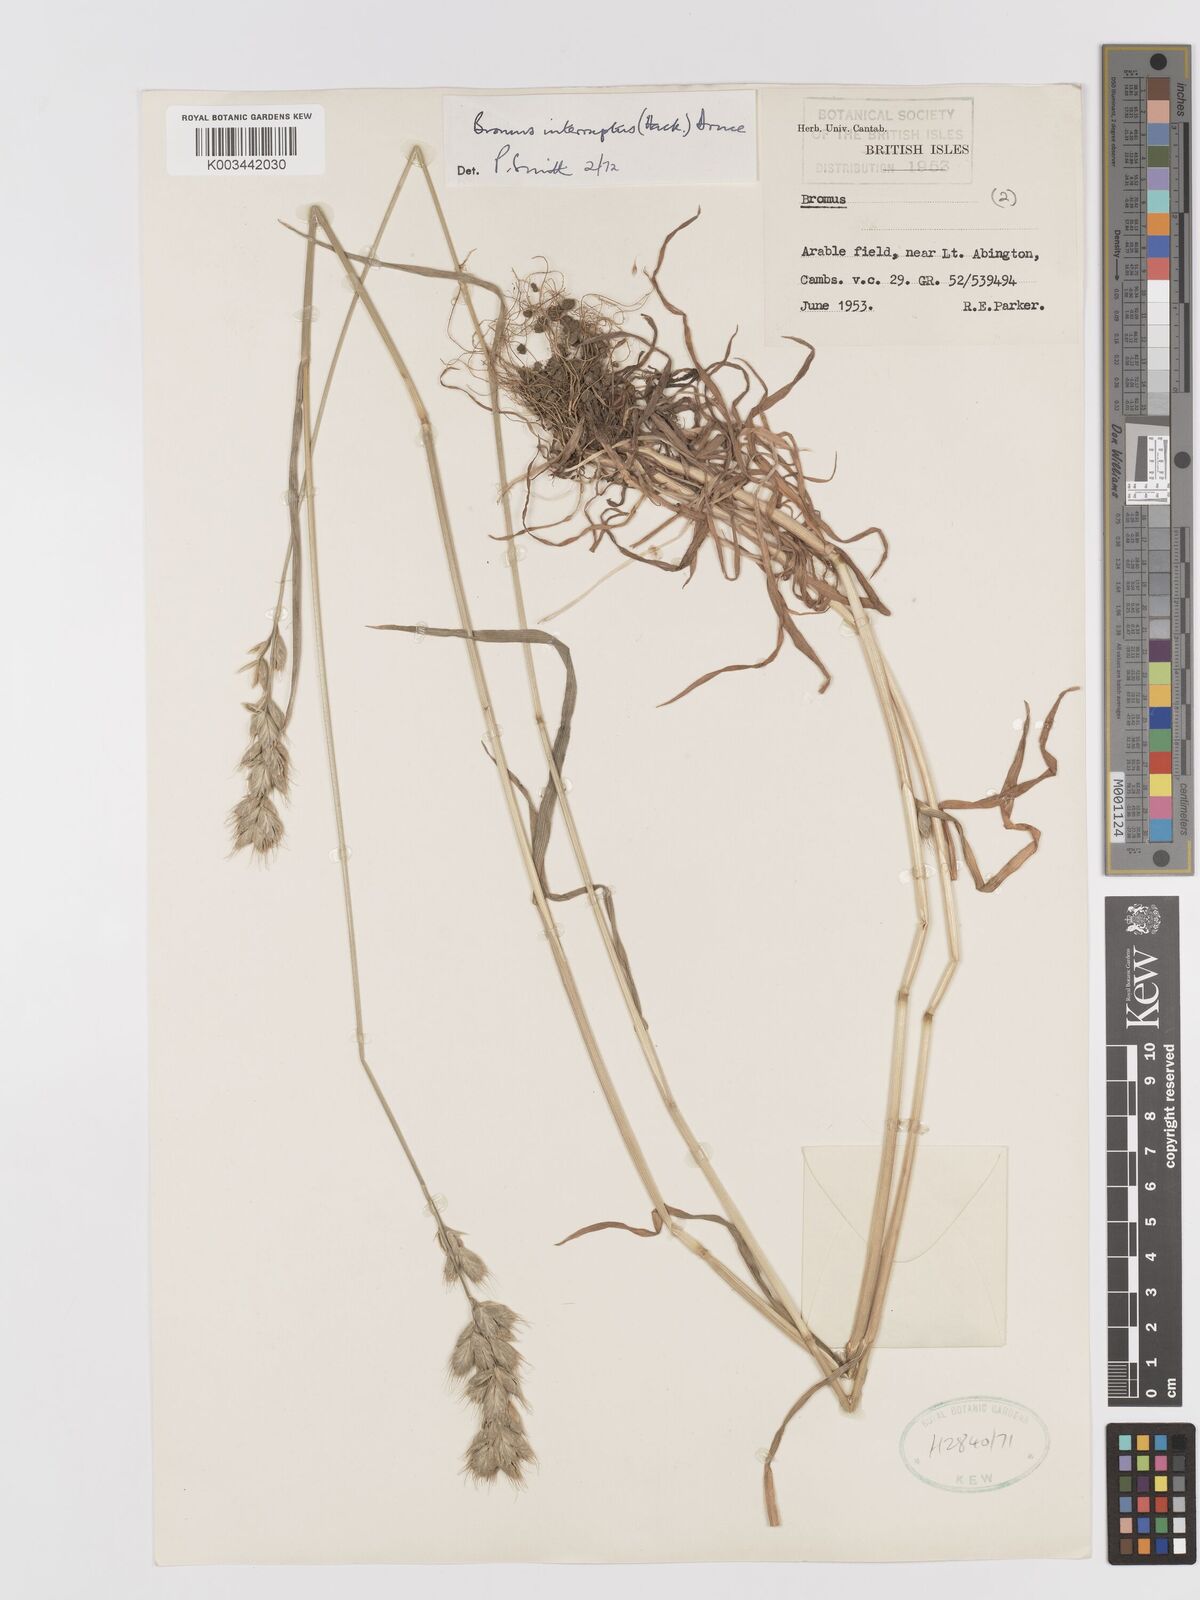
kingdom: Plantae
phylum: Tracheophyta
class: Liliopsida
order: Poales
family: Poaceae
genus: Bromus
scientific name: Bromus interruptus
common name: Interrupted brome
